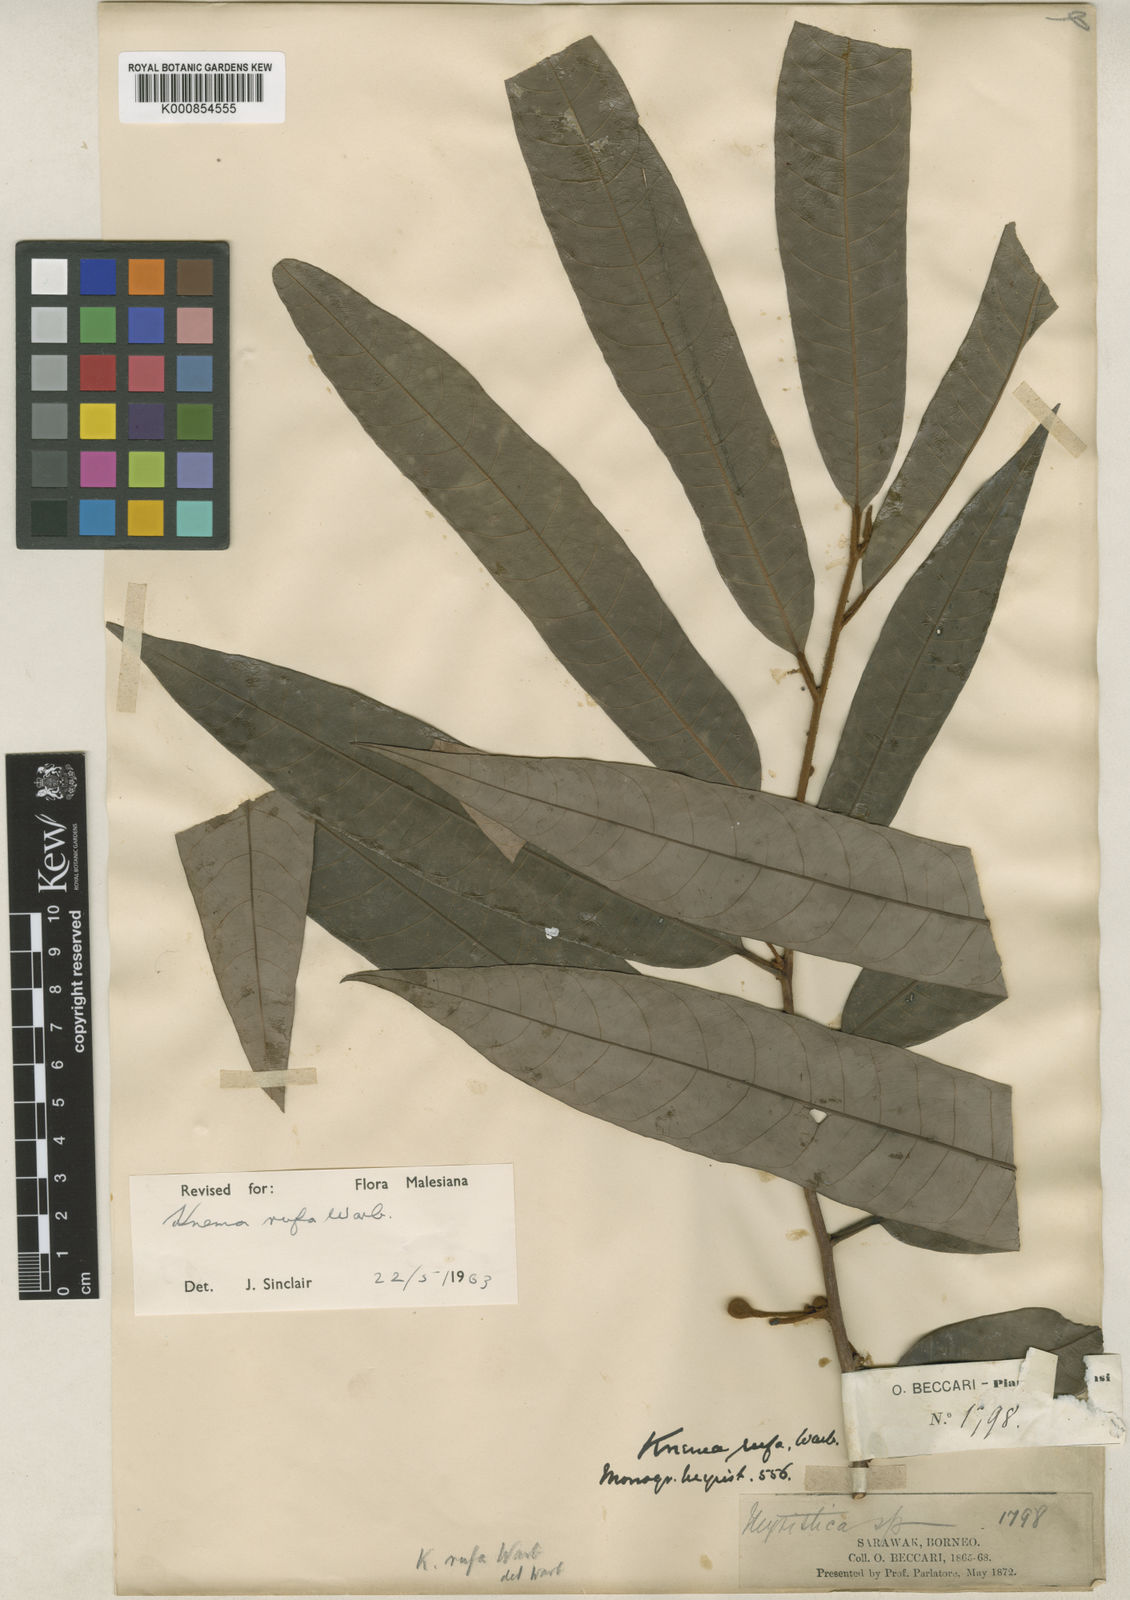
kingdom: Plantae
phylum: Tracheophyta
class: Magnoliopsida
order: Magnoliales
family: Myristicaceae
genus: Knema
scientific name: Knema rufa
